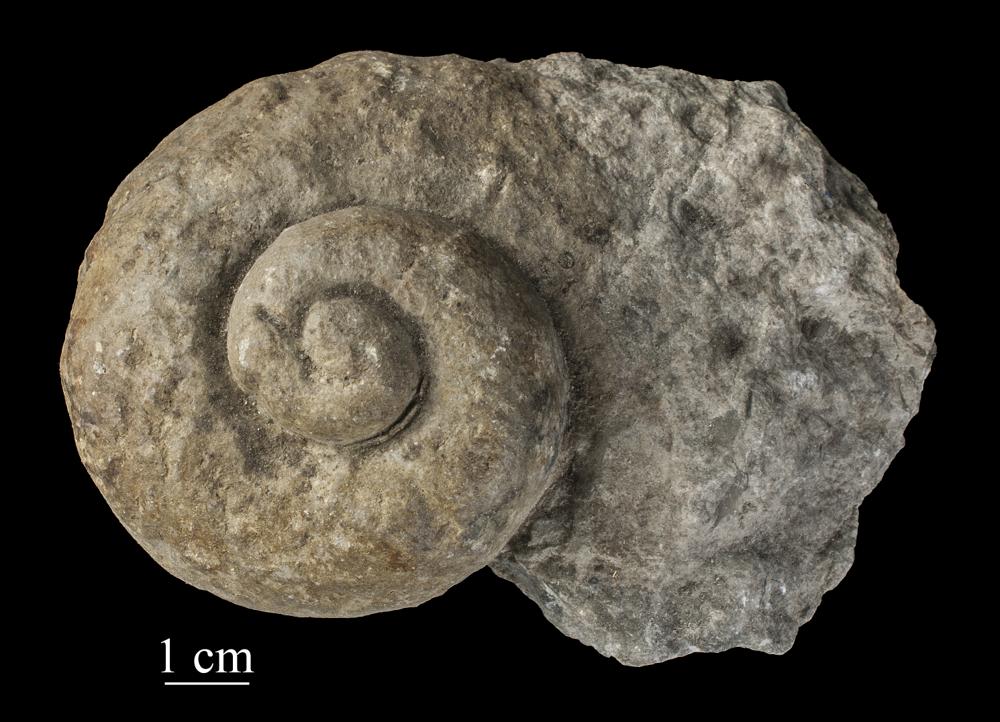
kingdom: Animalia
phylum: Mollusca
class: Gastropoda
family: Holopeidae
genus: Holopea
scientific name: Holopea ampullacea
